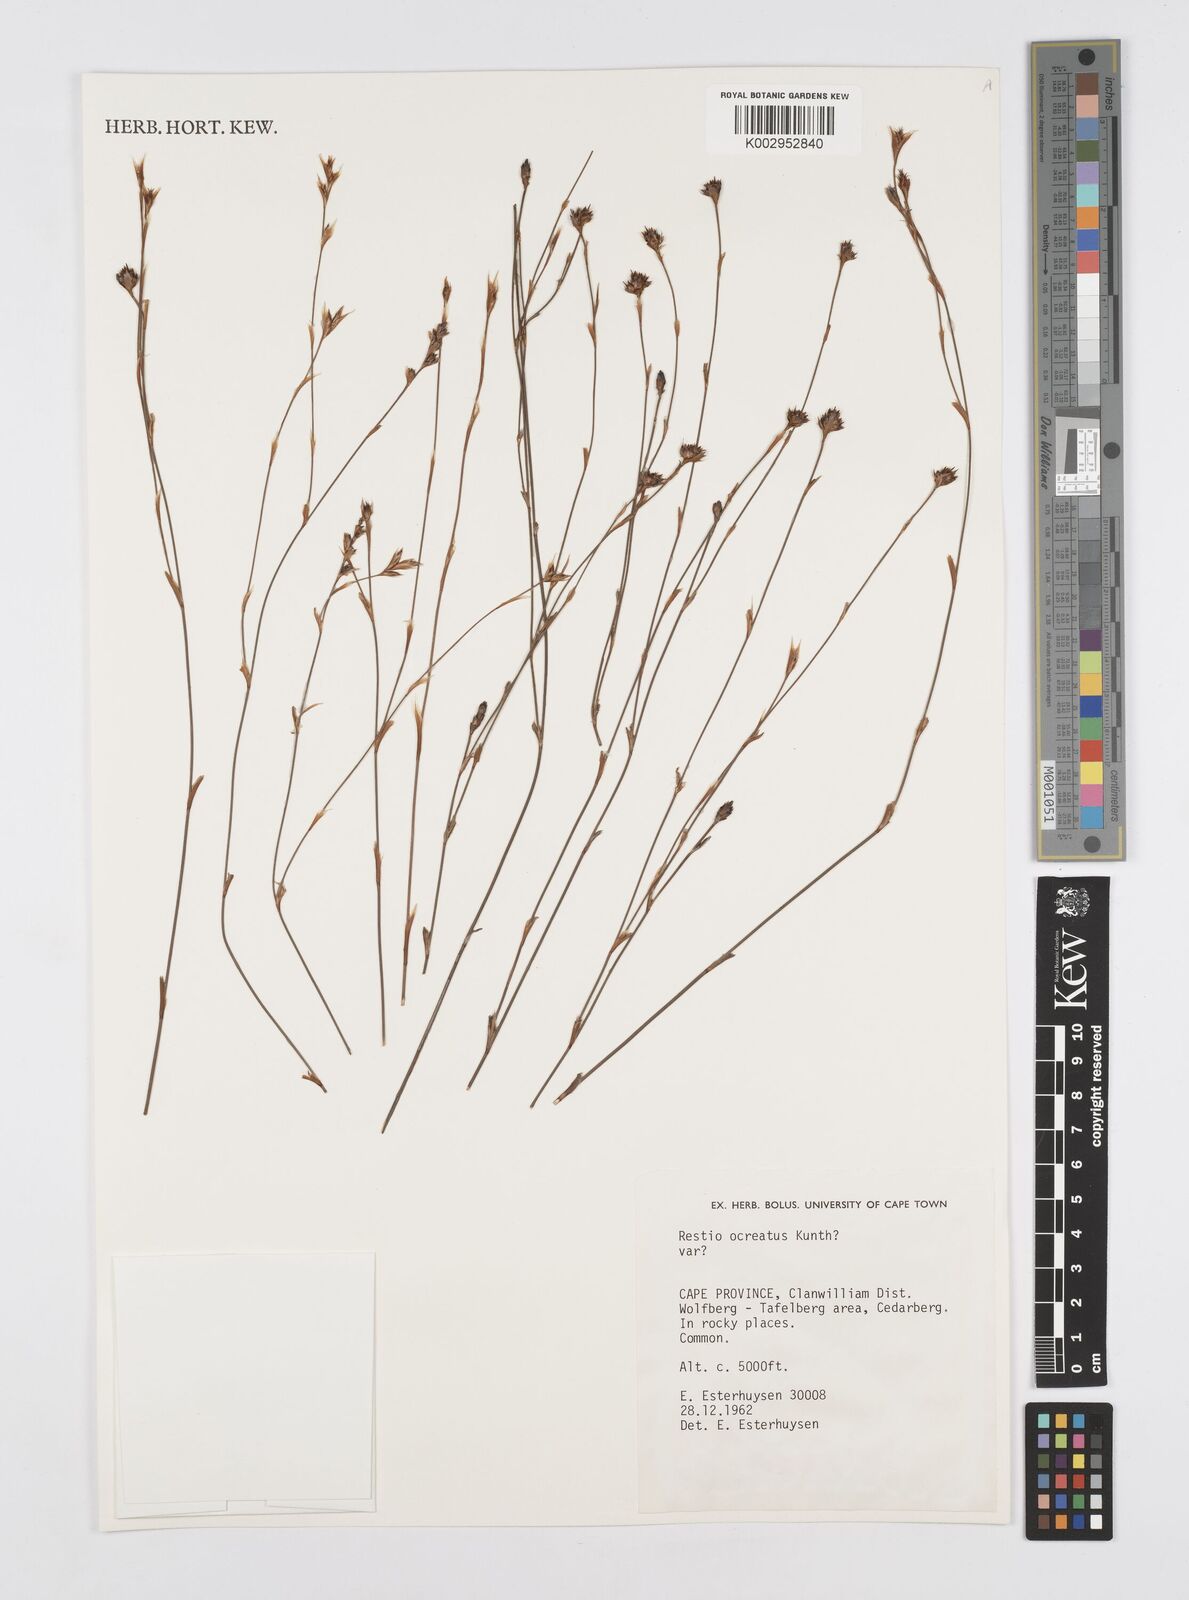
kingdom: Plantae
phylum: Tracheophyta
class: Liliopsida
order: Poales
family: Restionaceae
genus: Restio
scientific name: Restio ocreatus
